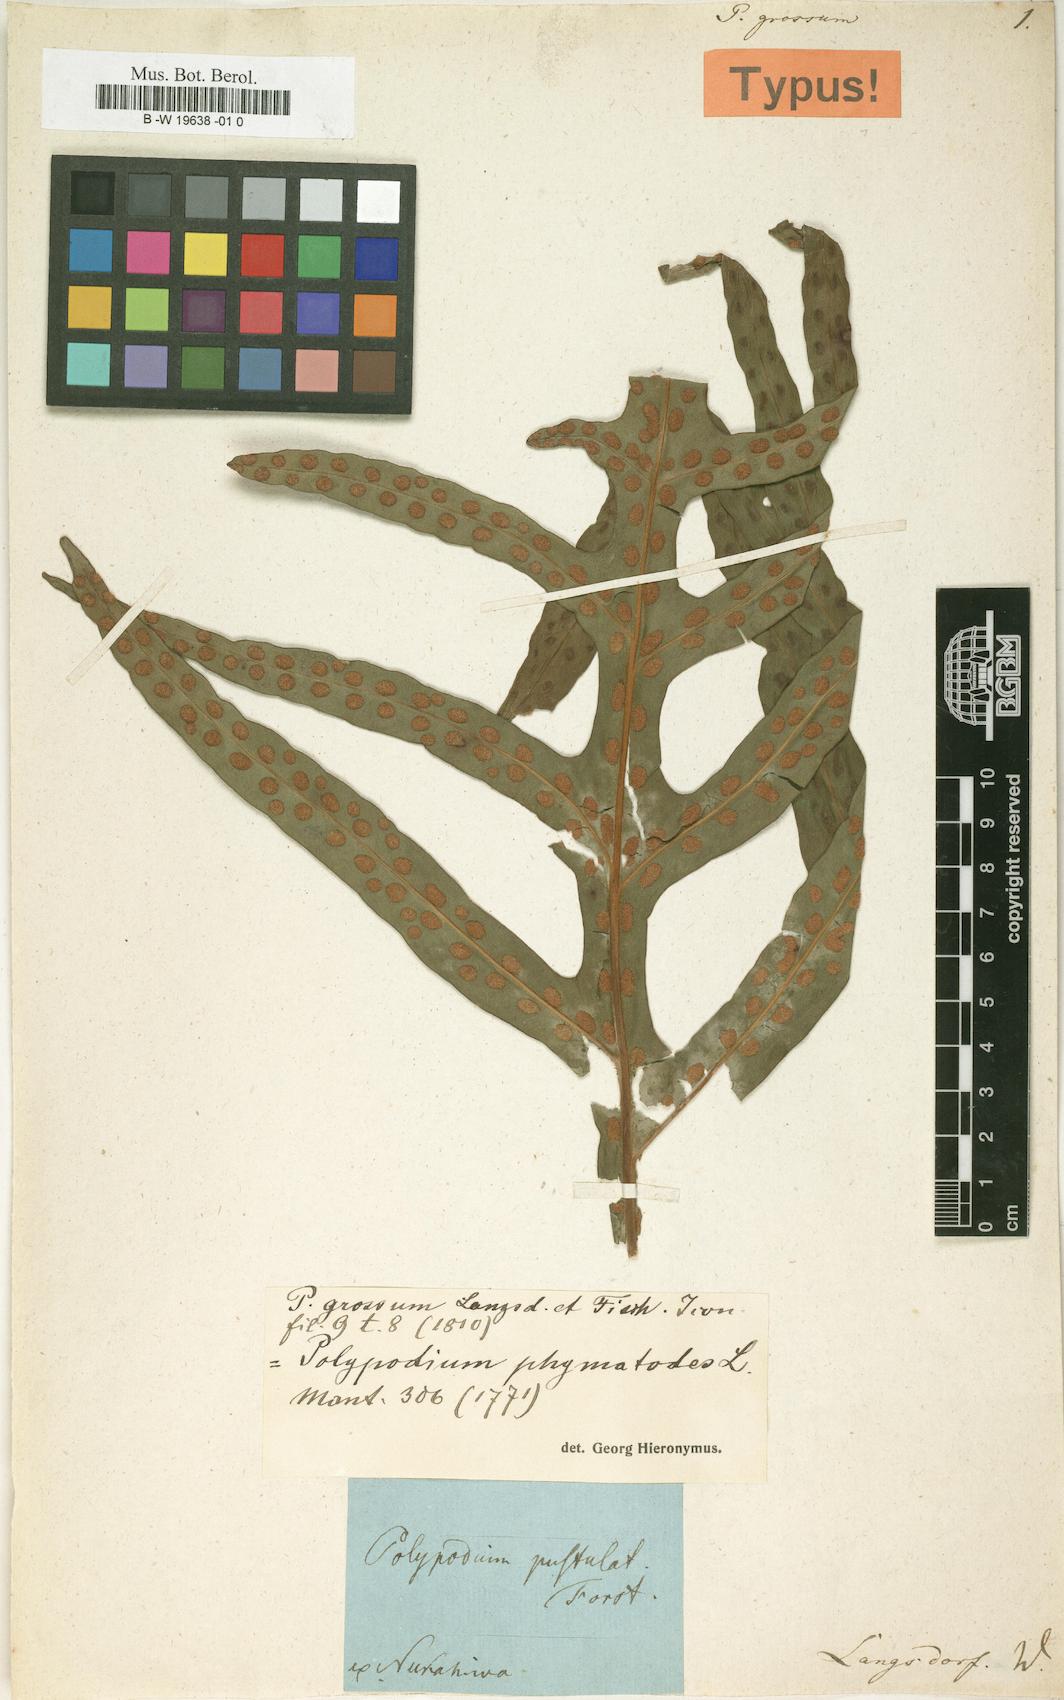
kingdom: Plantae
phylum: Tracheophyta
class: Polypodiopsida
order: Polypodiales
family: Polypodiaceae
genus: Microsorum
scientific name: Microsorum grossum
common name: Musk fern
